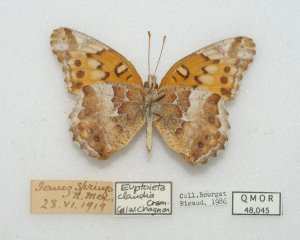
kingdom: Animalia
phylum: Arthropoda
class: Insecta
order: Lepidoptera
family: Nymphalidae
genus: Euptoieta
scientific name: Euptoieta claudia
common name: Variegated Fritillary
